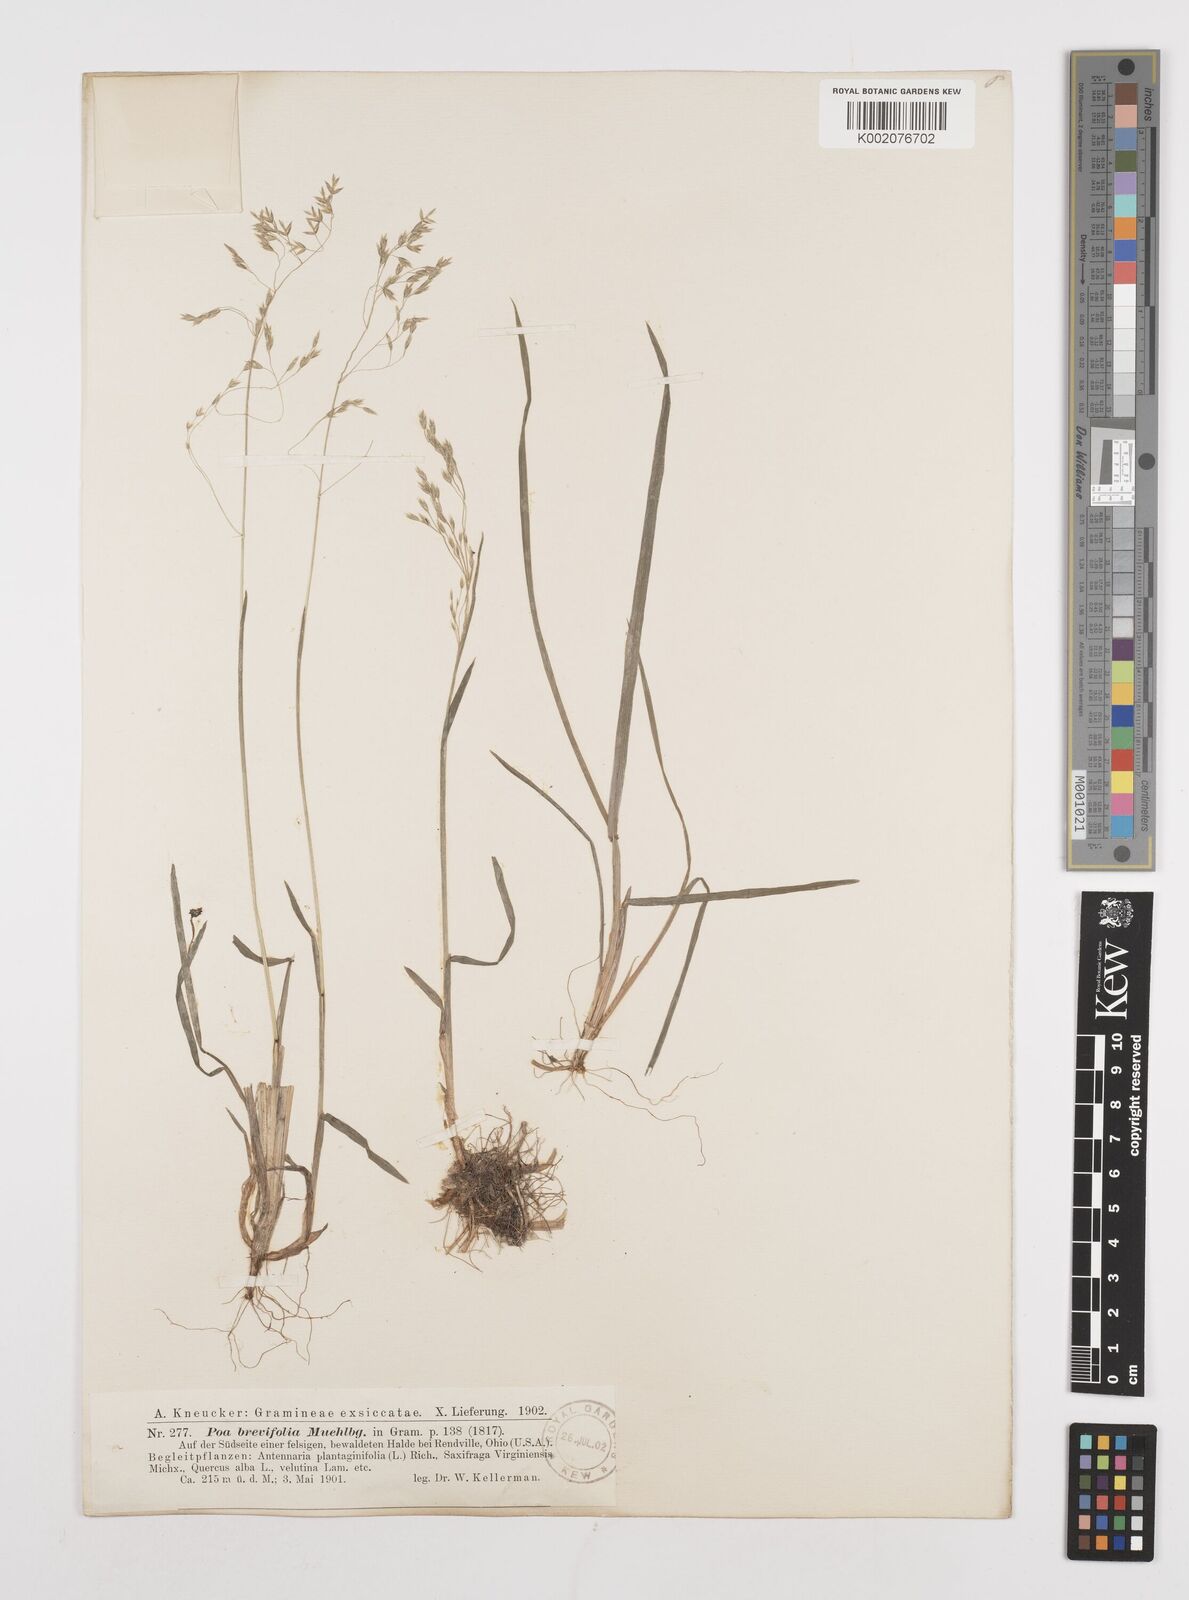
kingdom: Plantae
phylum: Tracheophyta
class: Liliopsida
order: Poales
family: Poaceae
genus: Poa
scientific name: Poa
